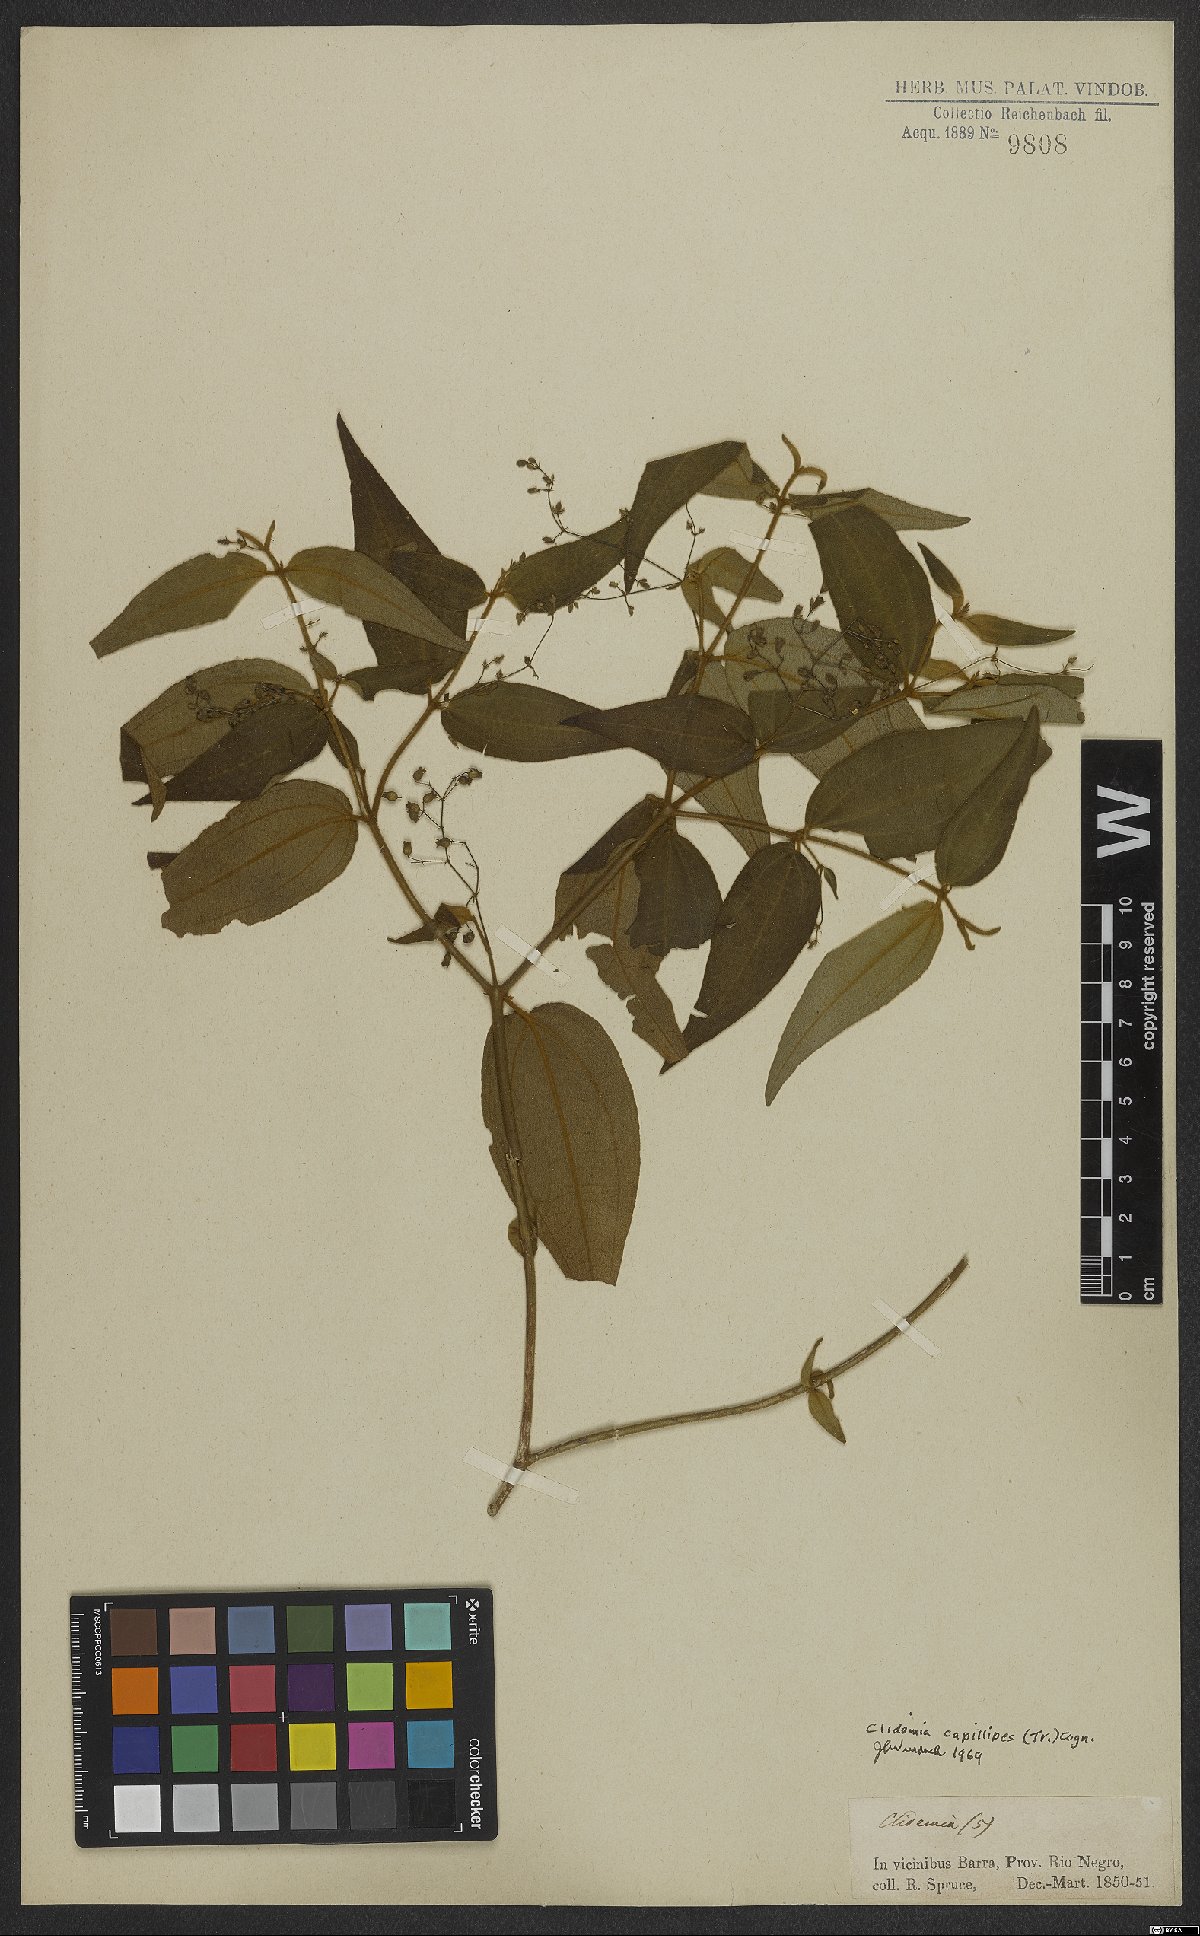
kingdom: Plantae
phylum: Tracheophyta
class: Magnoliopsida
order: Myrtales
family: Melastomataceae
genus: Miconia
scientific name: Miconia capillipes
